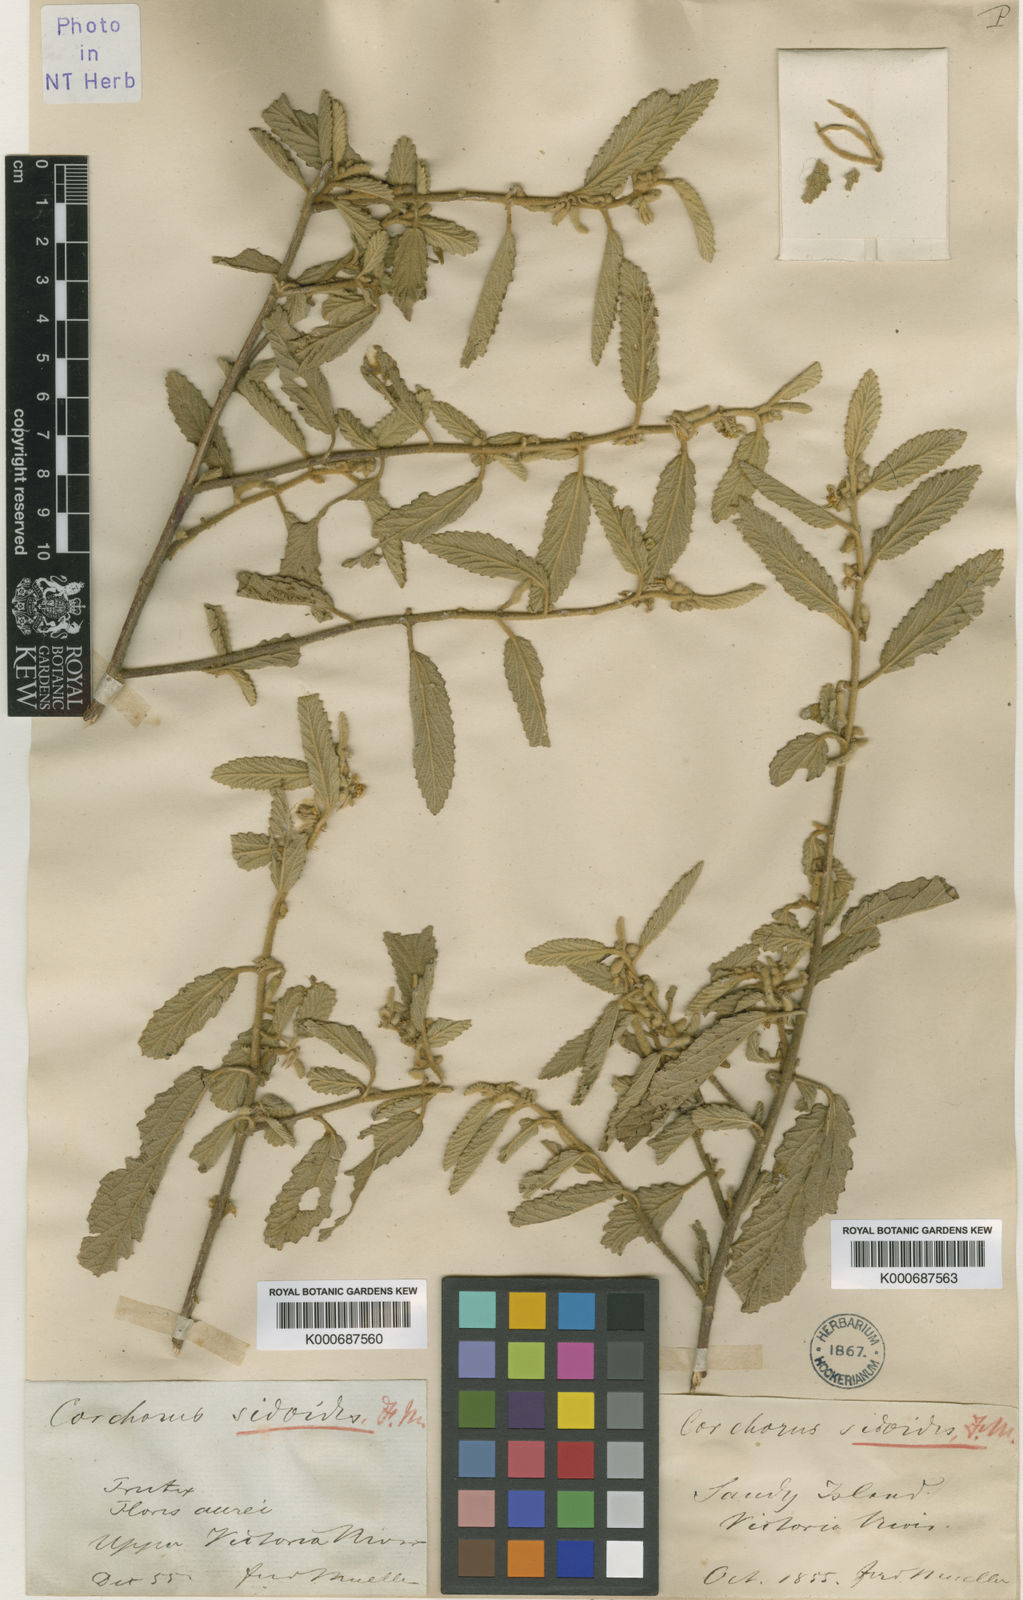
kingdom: Plantae
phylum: Tracheophyta
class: Magnoliopsida
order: Malvales
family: Malvaceae
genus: Corchorus
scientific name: Corchorus sidoides
